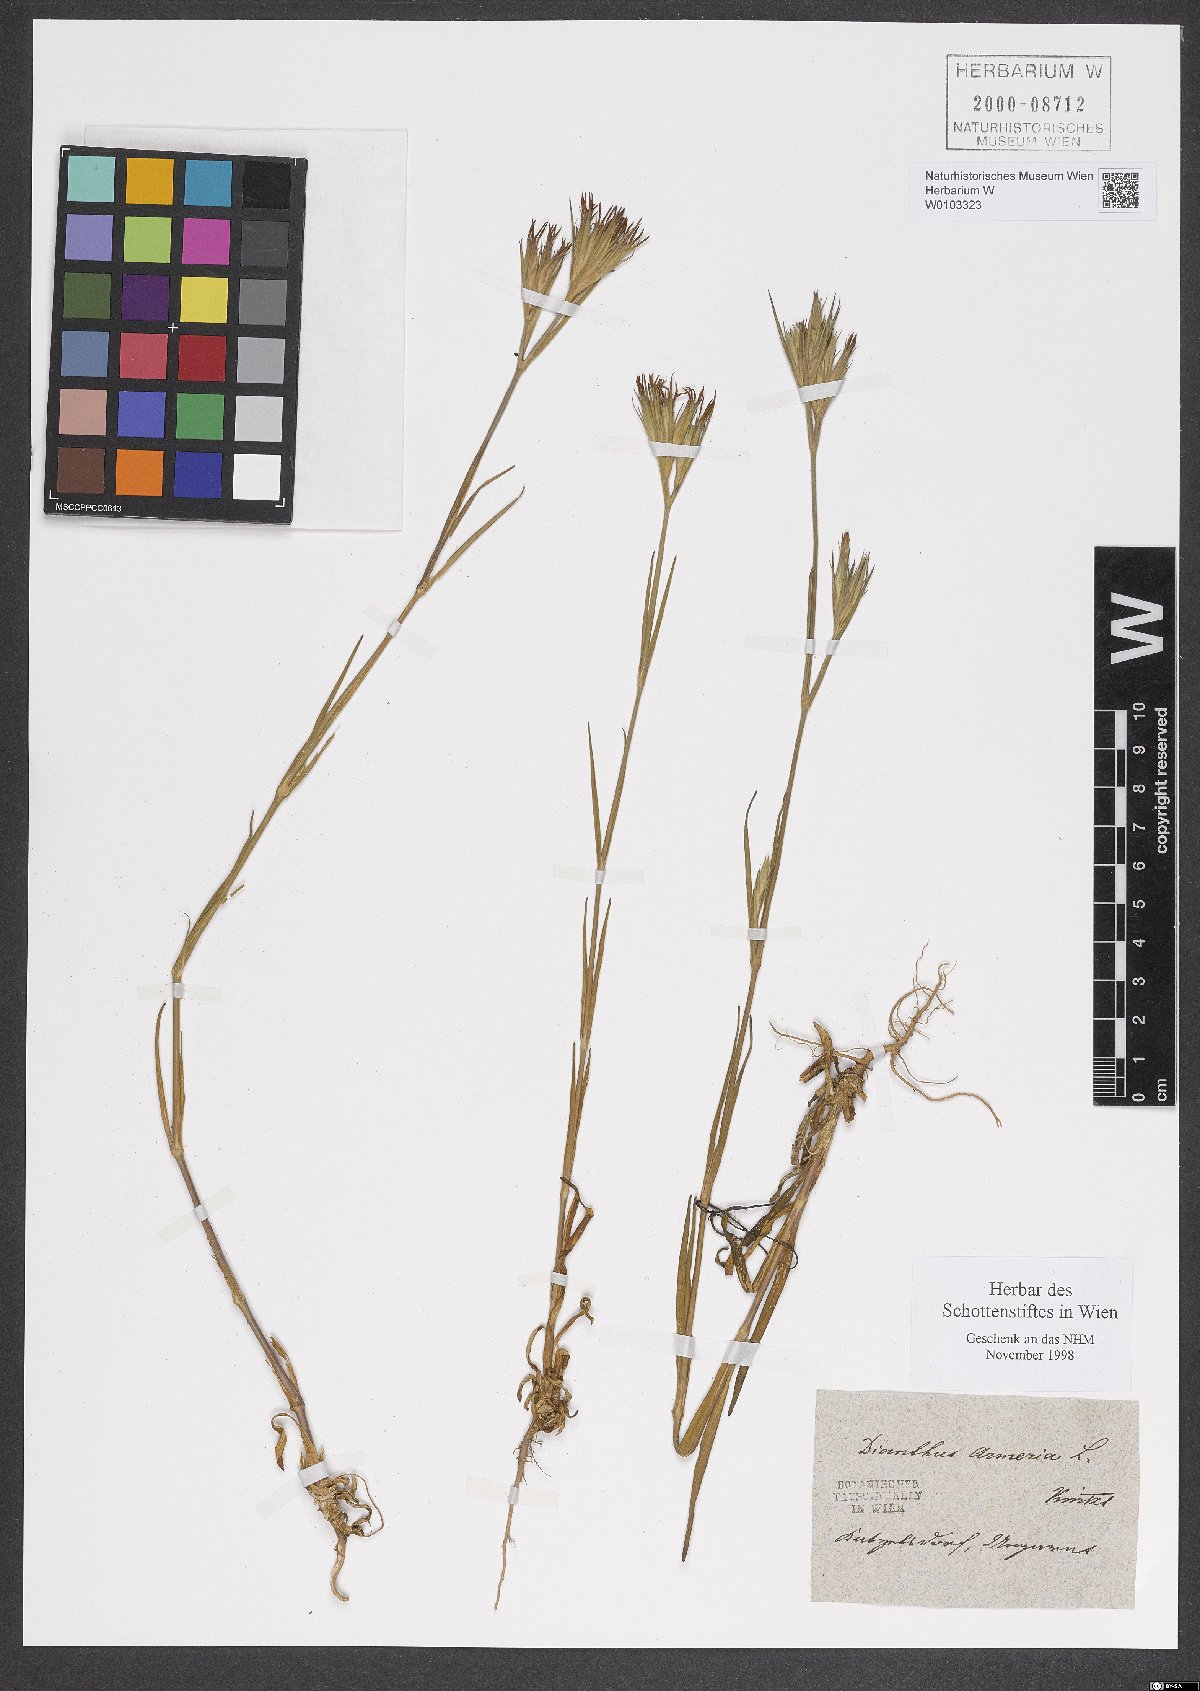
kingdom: Plantae
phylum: Tracheophyta
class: Magnoliopsida
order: Caryophyllales
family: Caryophyllaceae
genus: Dianthus
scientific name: Dianthus armeria
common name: Deptford pink
